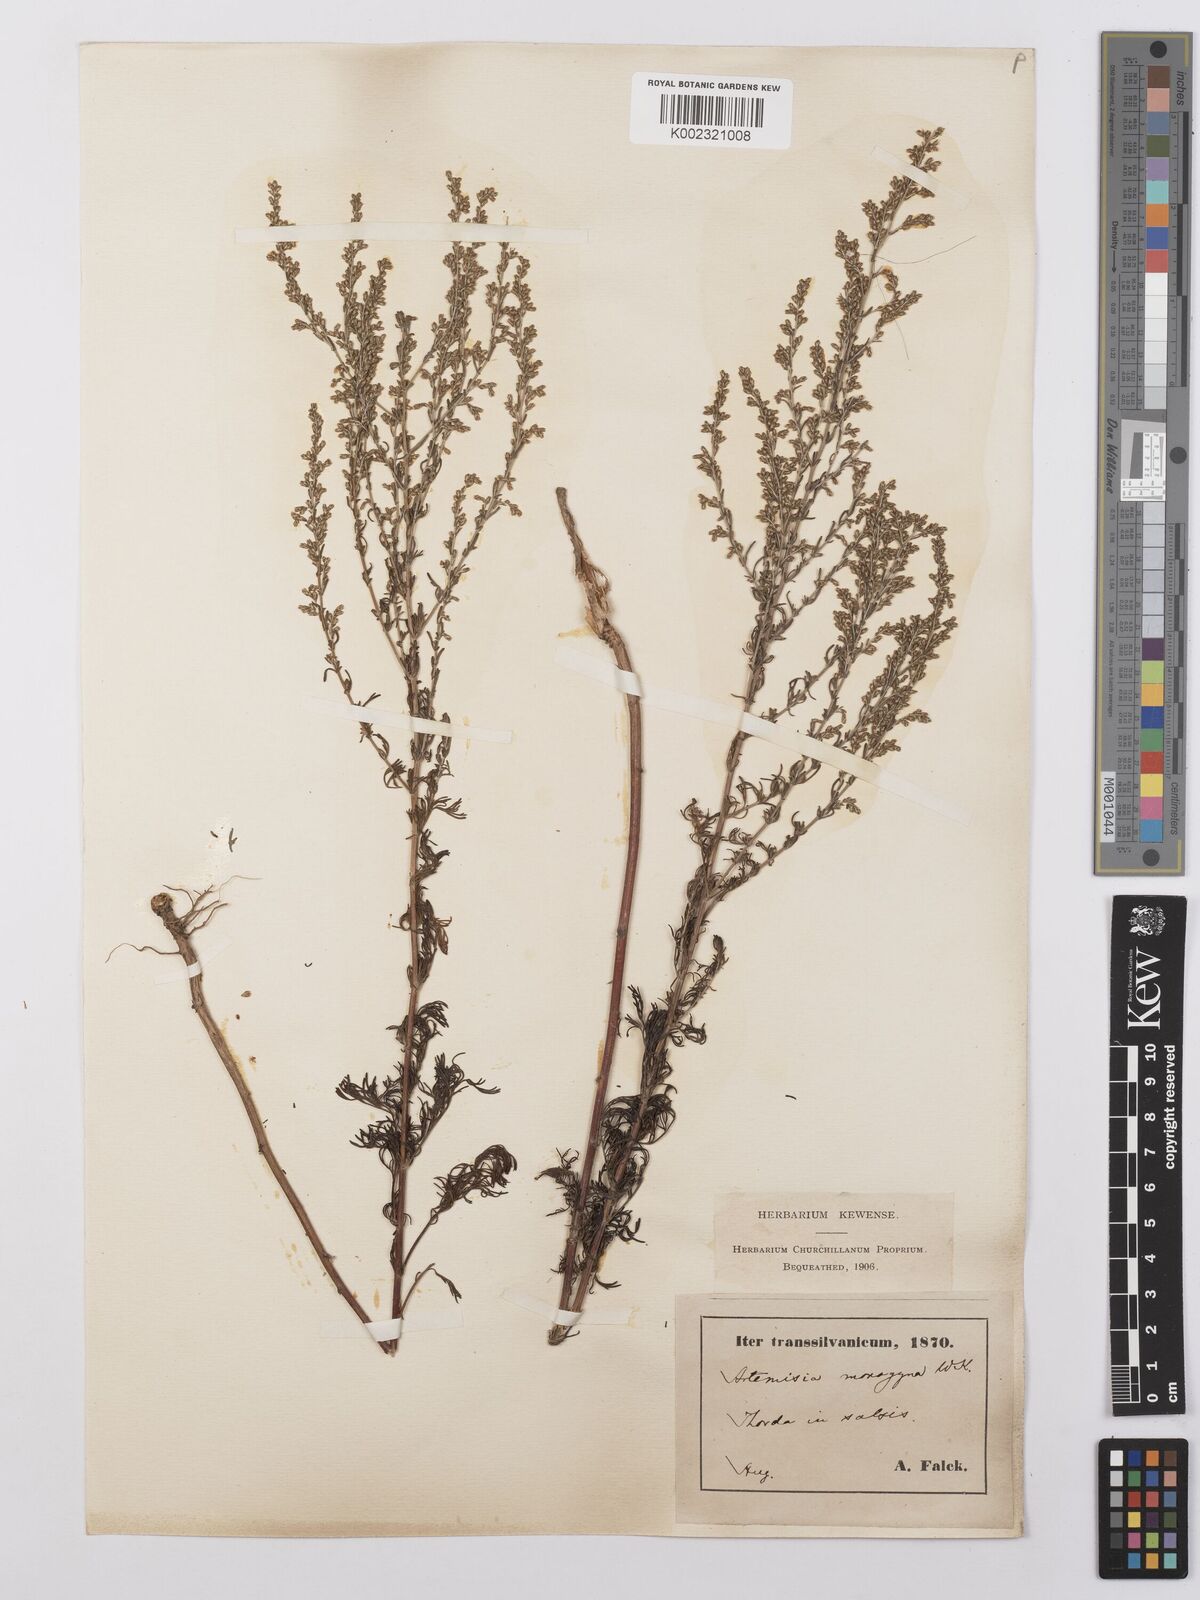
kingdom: Plantae
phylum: Tracheophyta
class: Magnoliopsida
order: Asterales
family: Asteraceae
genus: Artemisia
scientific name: Artemisia santonicum
